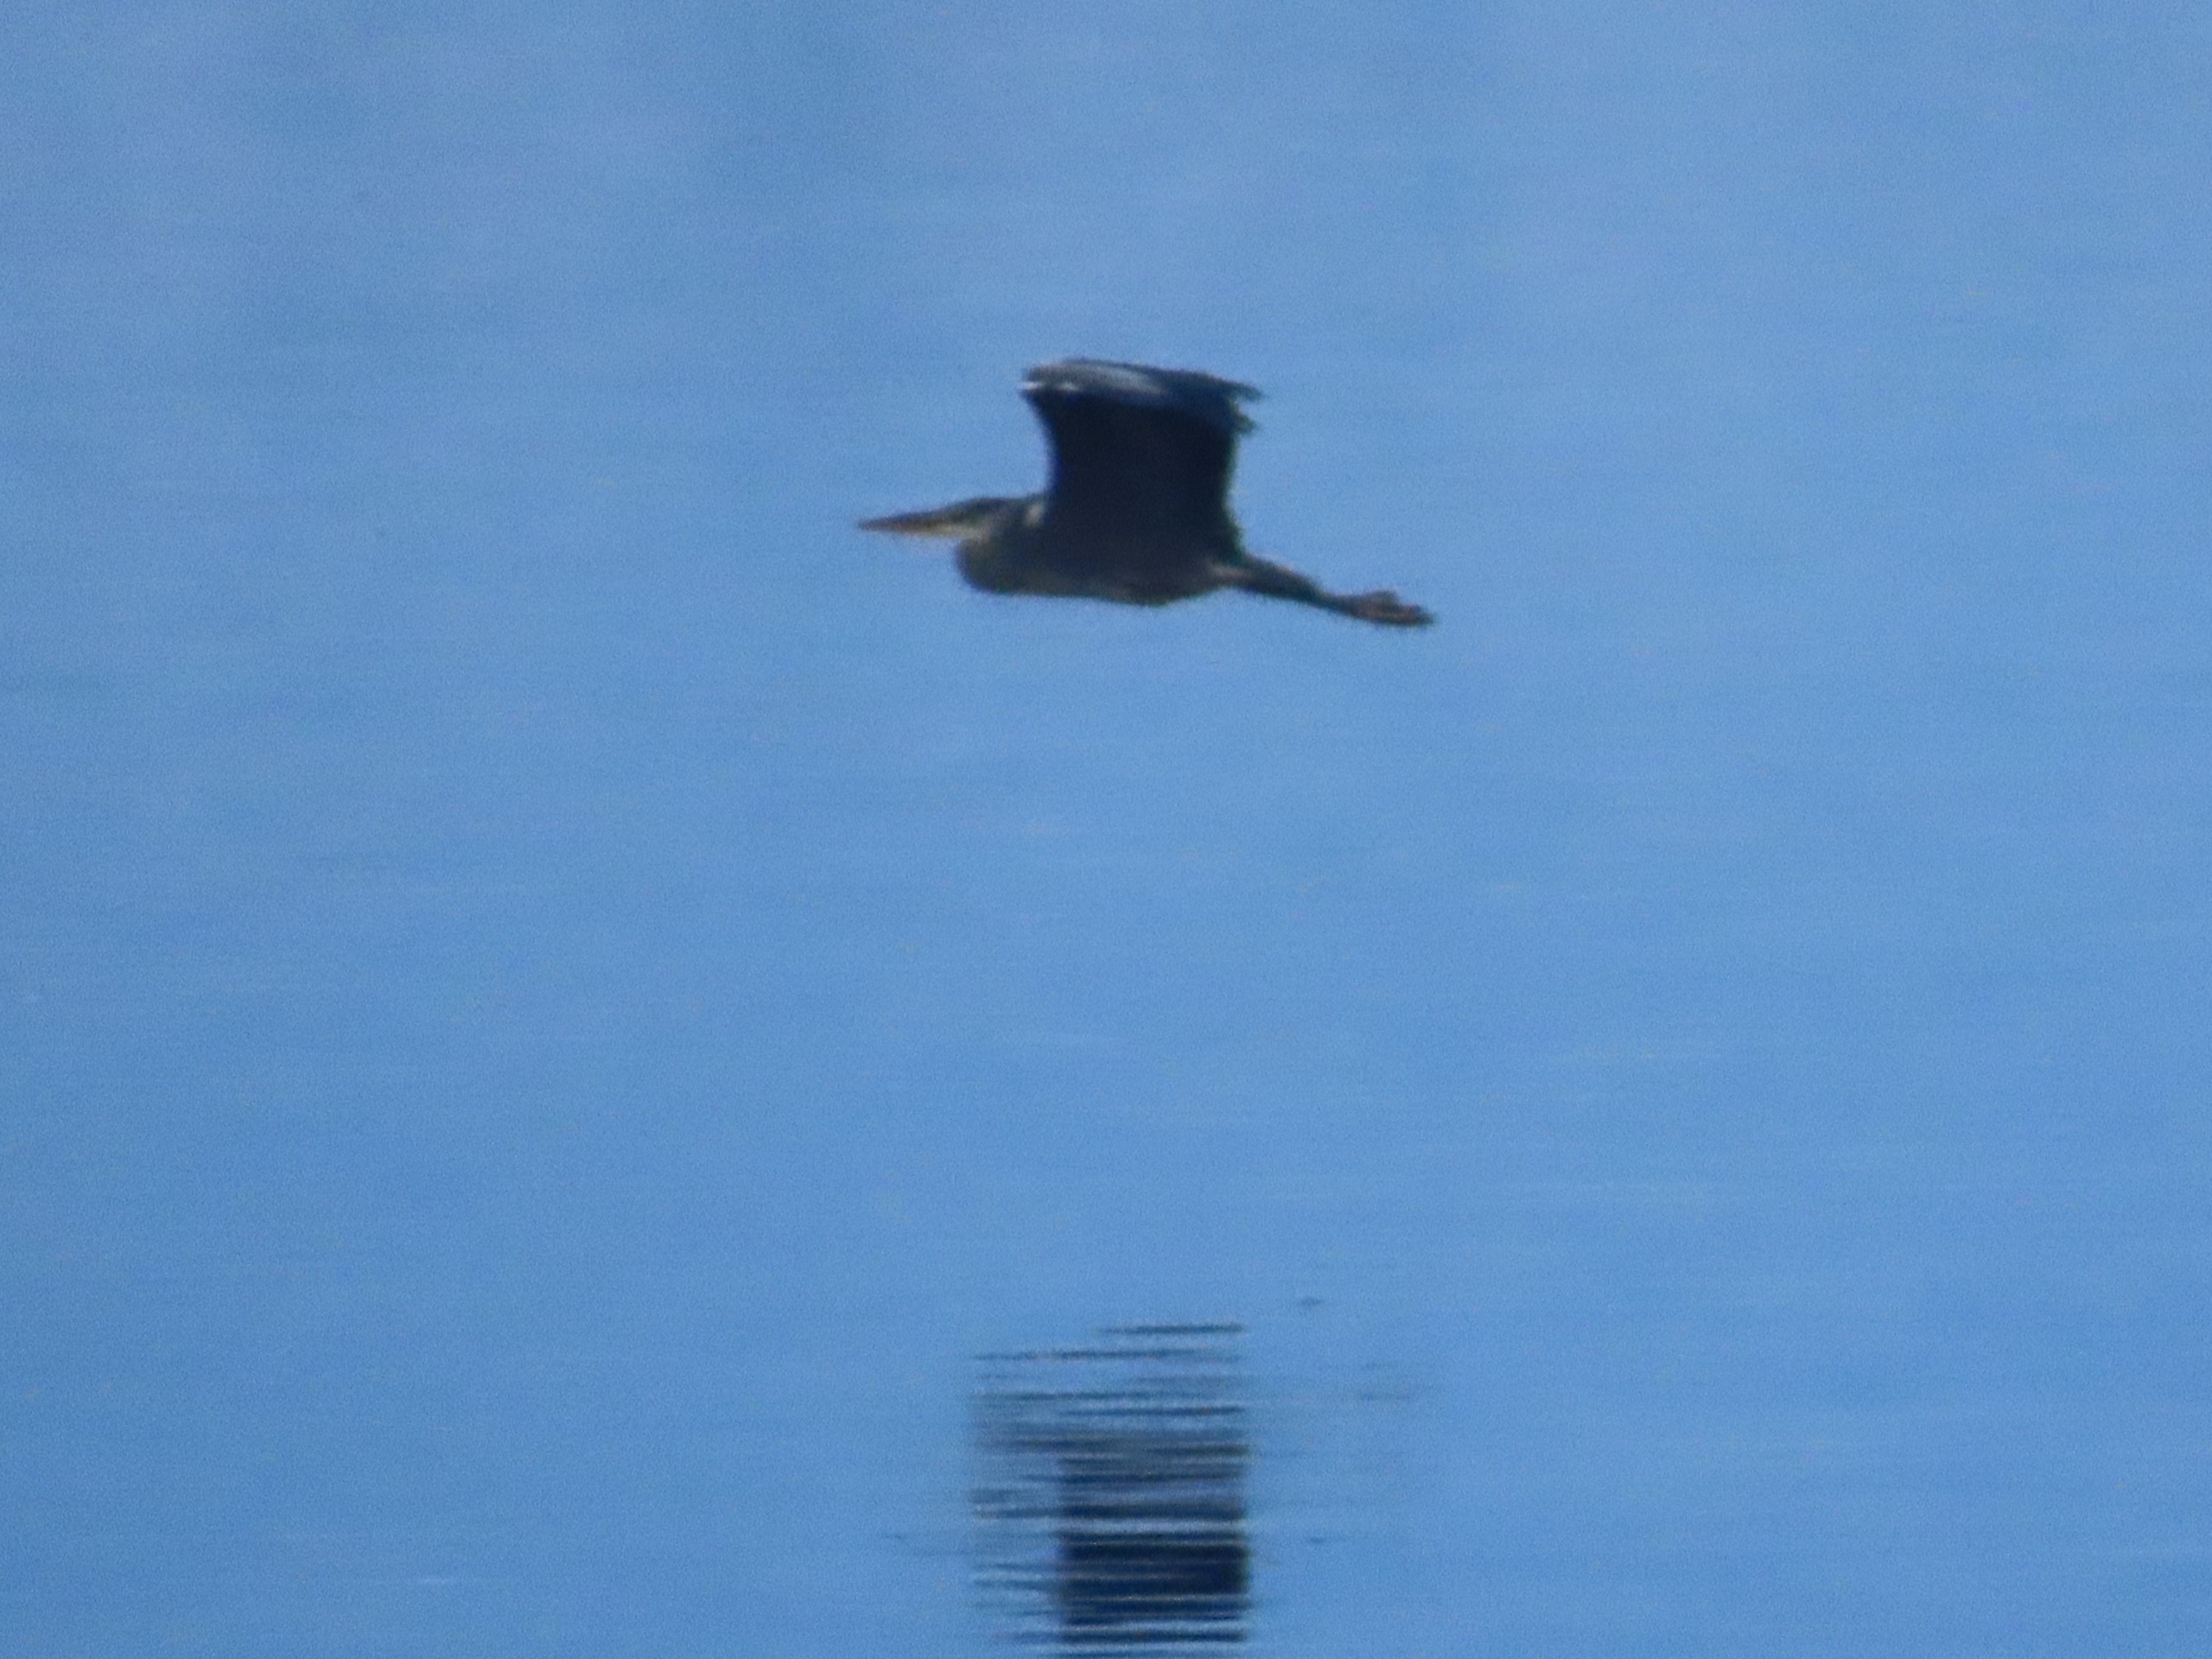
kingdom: Animalia
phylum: Chordata
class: Aves
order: Pelecaniformes
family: Ardeidae
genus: Ardea
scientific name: Ardea cinerea
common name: Fiskehejre
